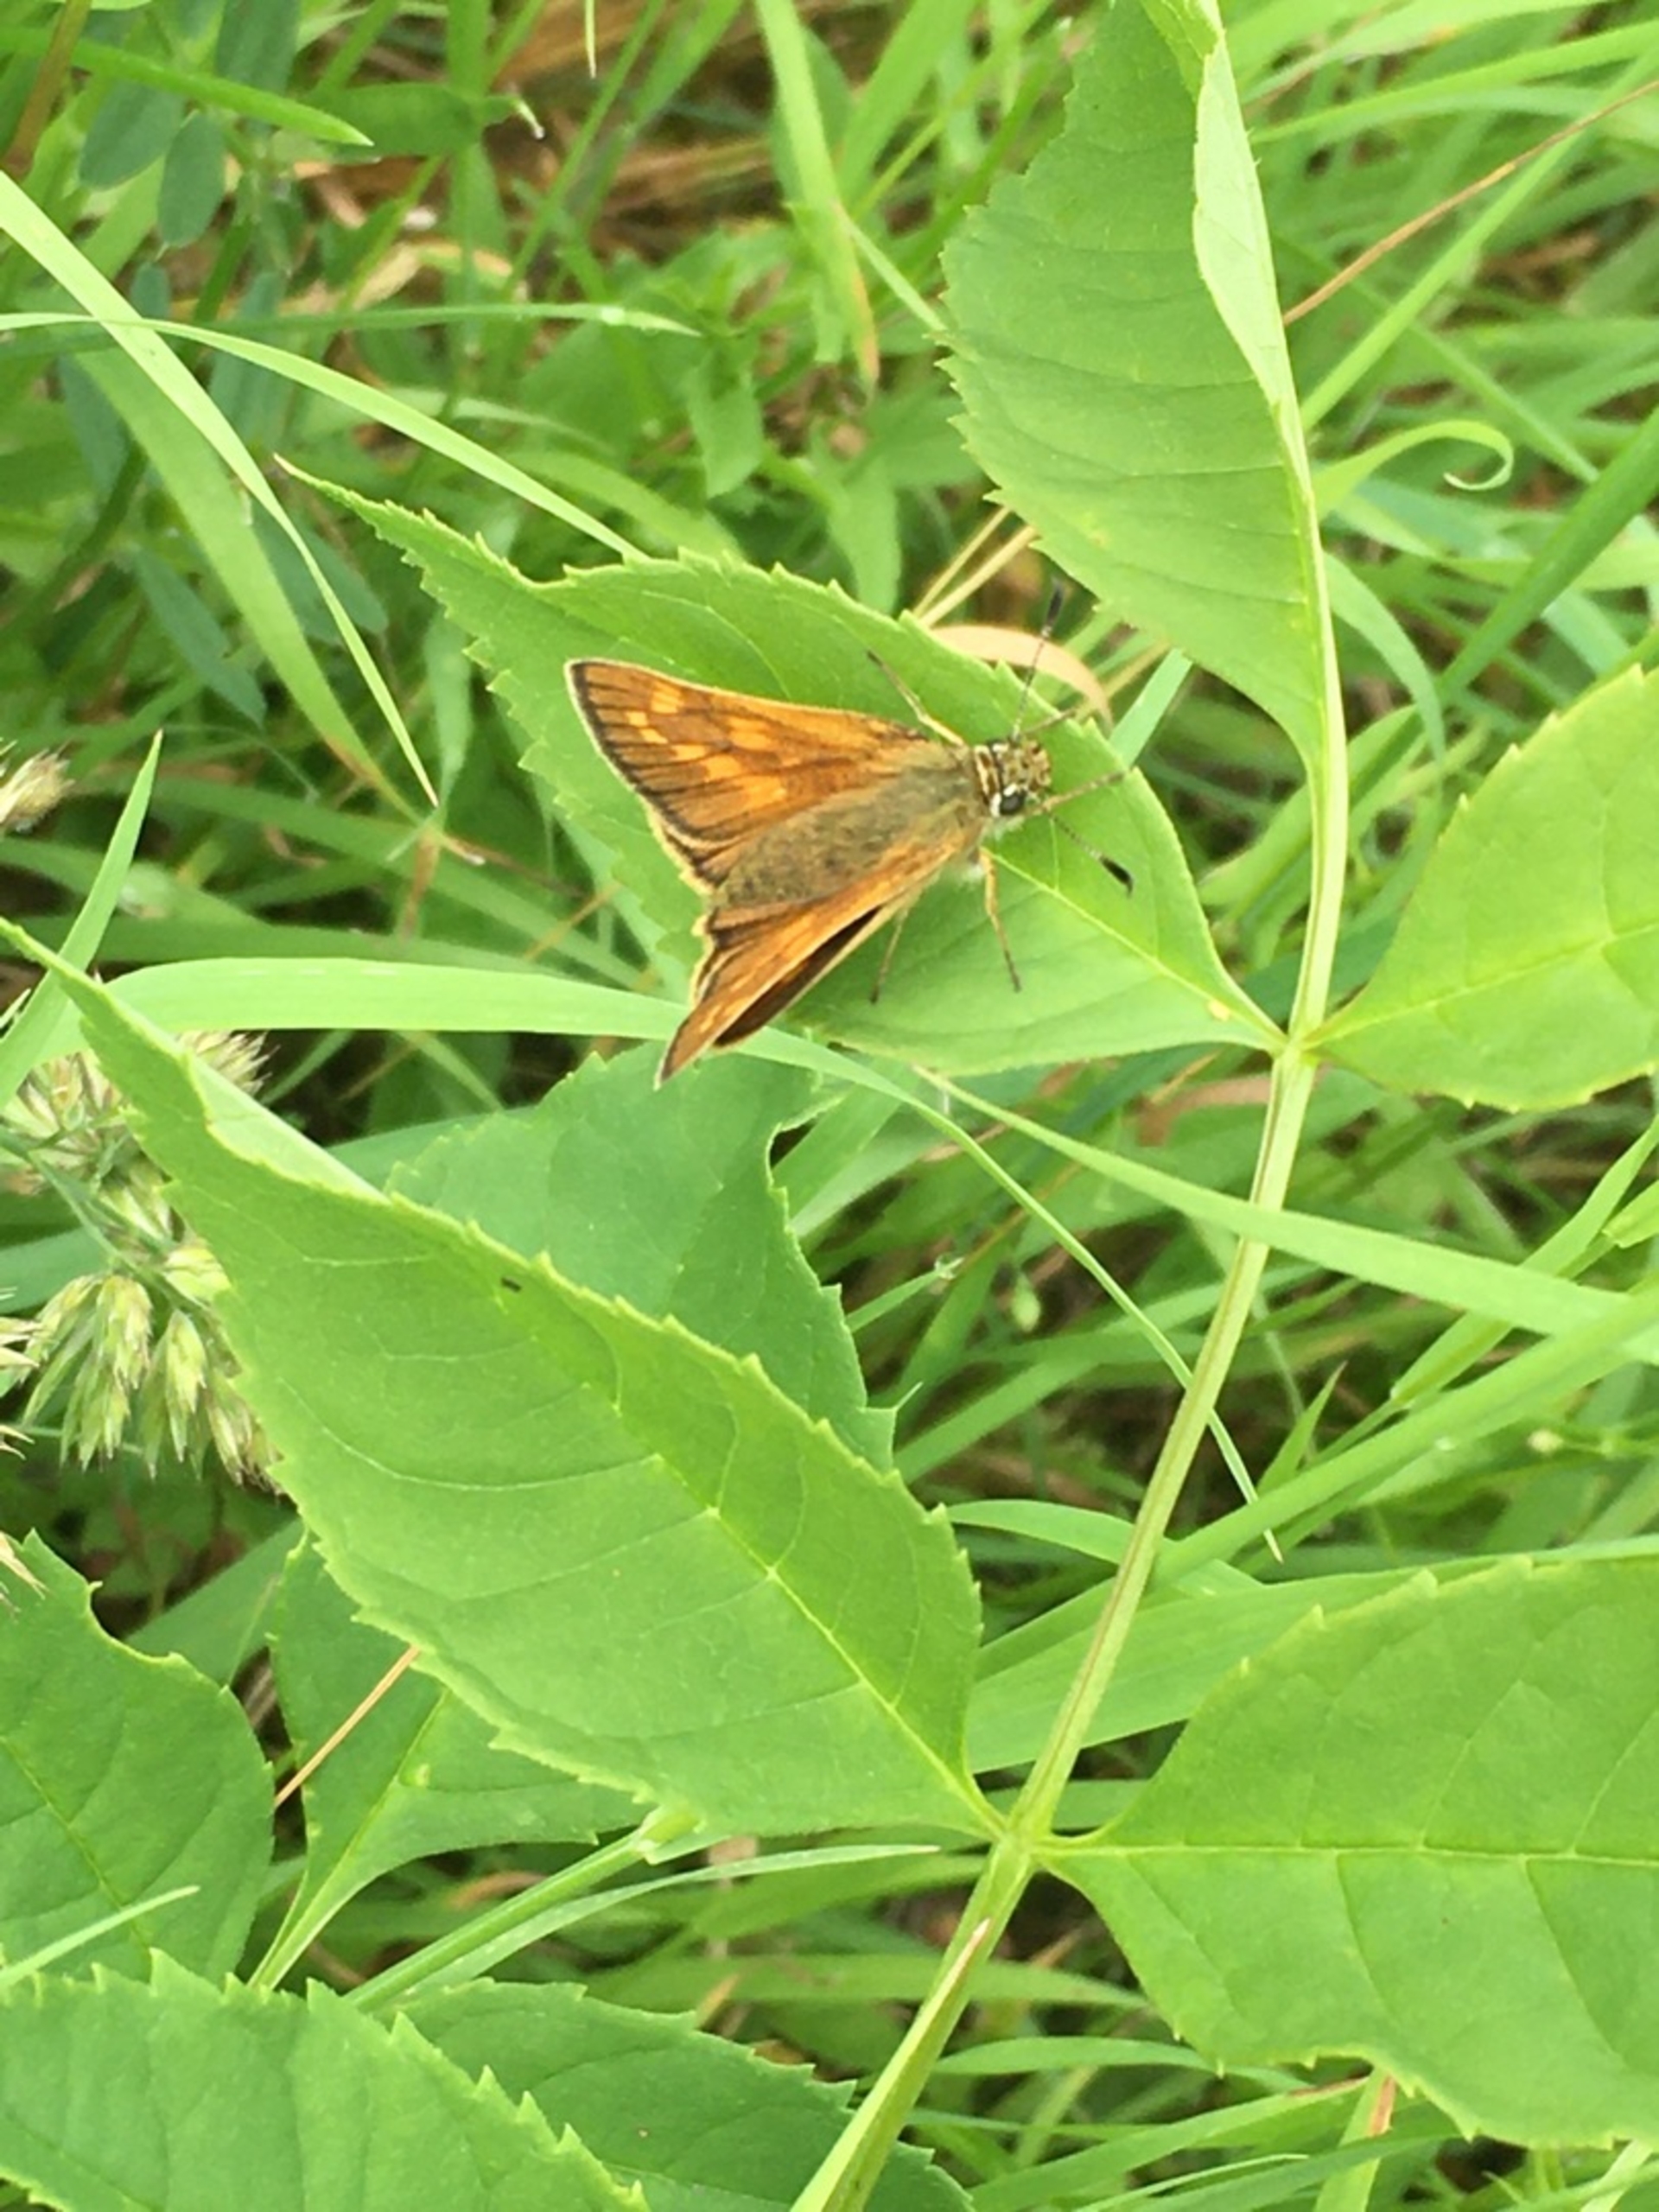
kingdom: Animalia
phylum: Arthropoda
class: Insecta
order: Lepidoptera
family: Hesperiidae
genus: Ochlodes
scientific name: Ochlodes venata
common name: Stor bredpande
